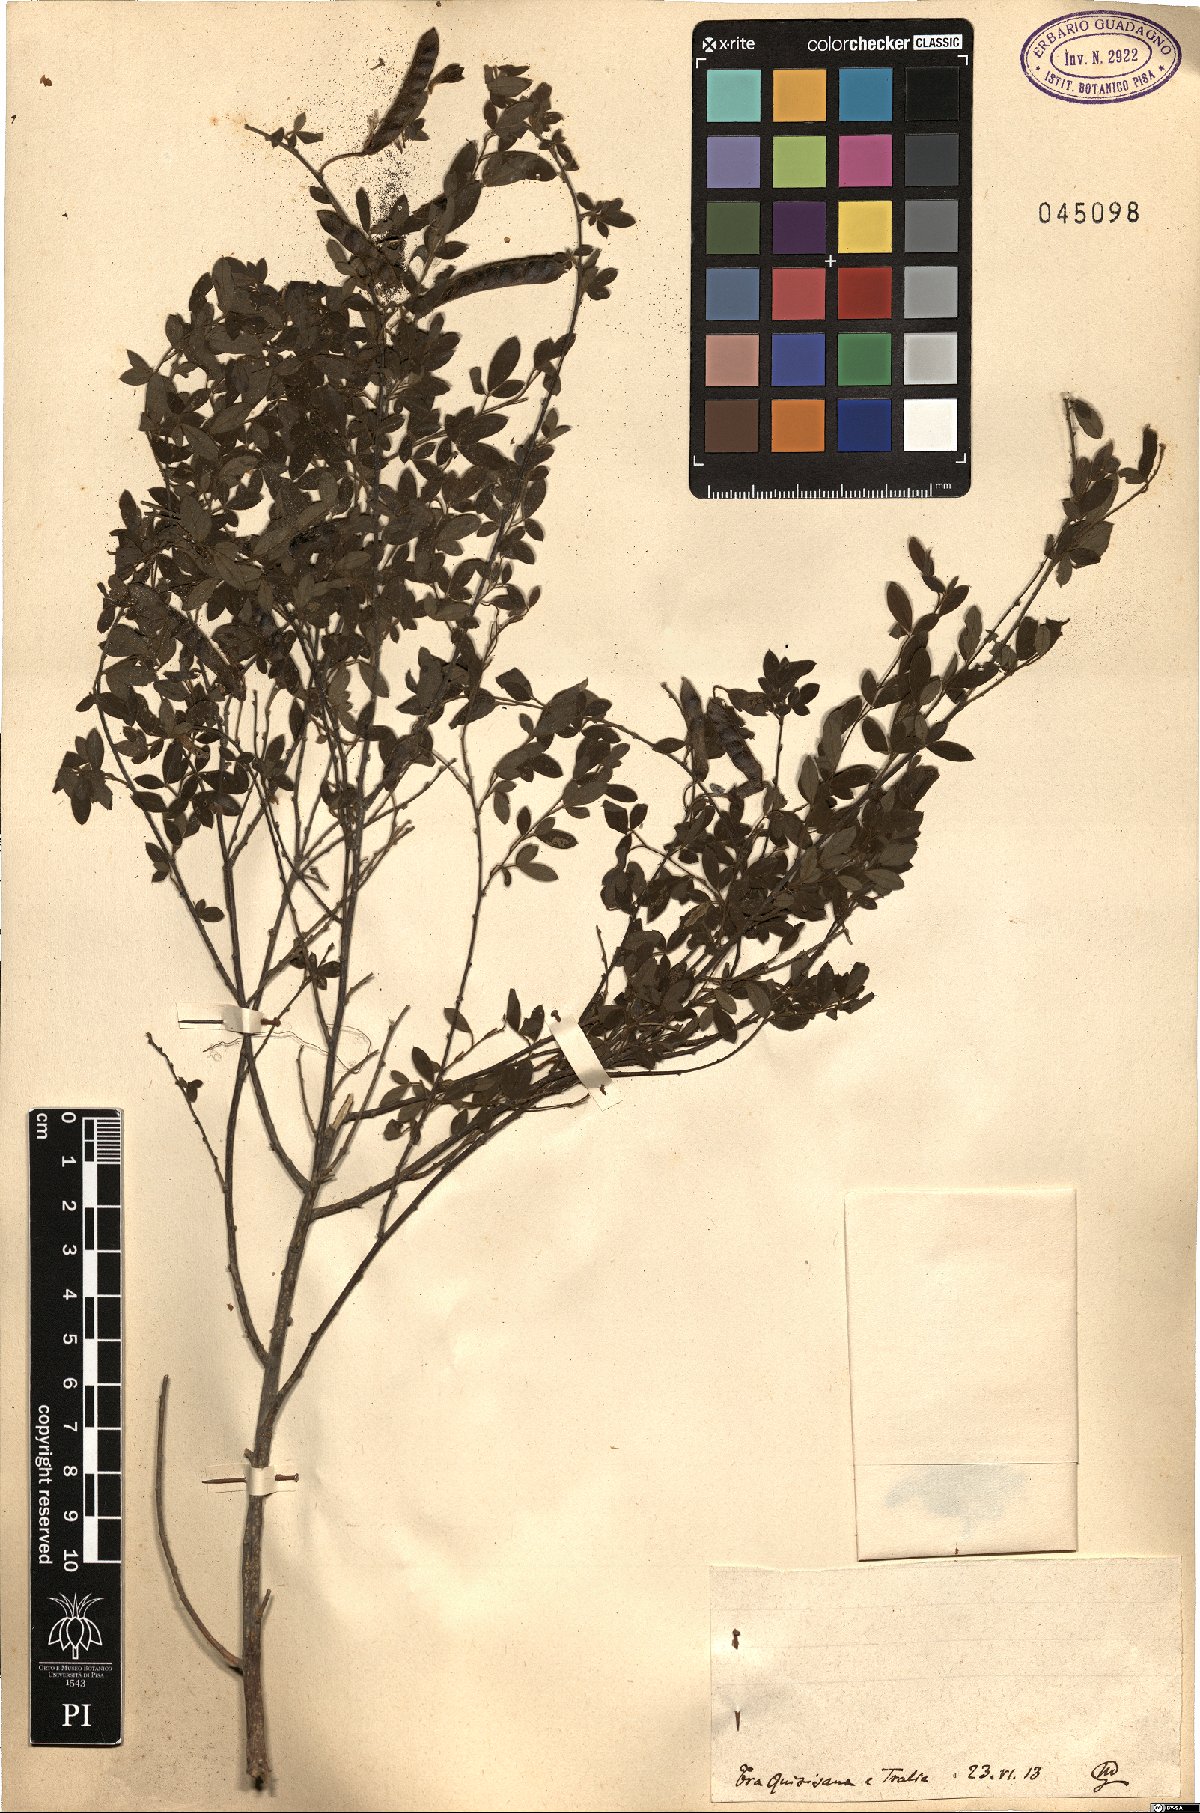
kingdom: Plantae
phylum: Tracheophyta
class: Magnoliopsida
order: Fabales
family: Fabaceae
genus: Cytisus
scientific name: Cytisus
